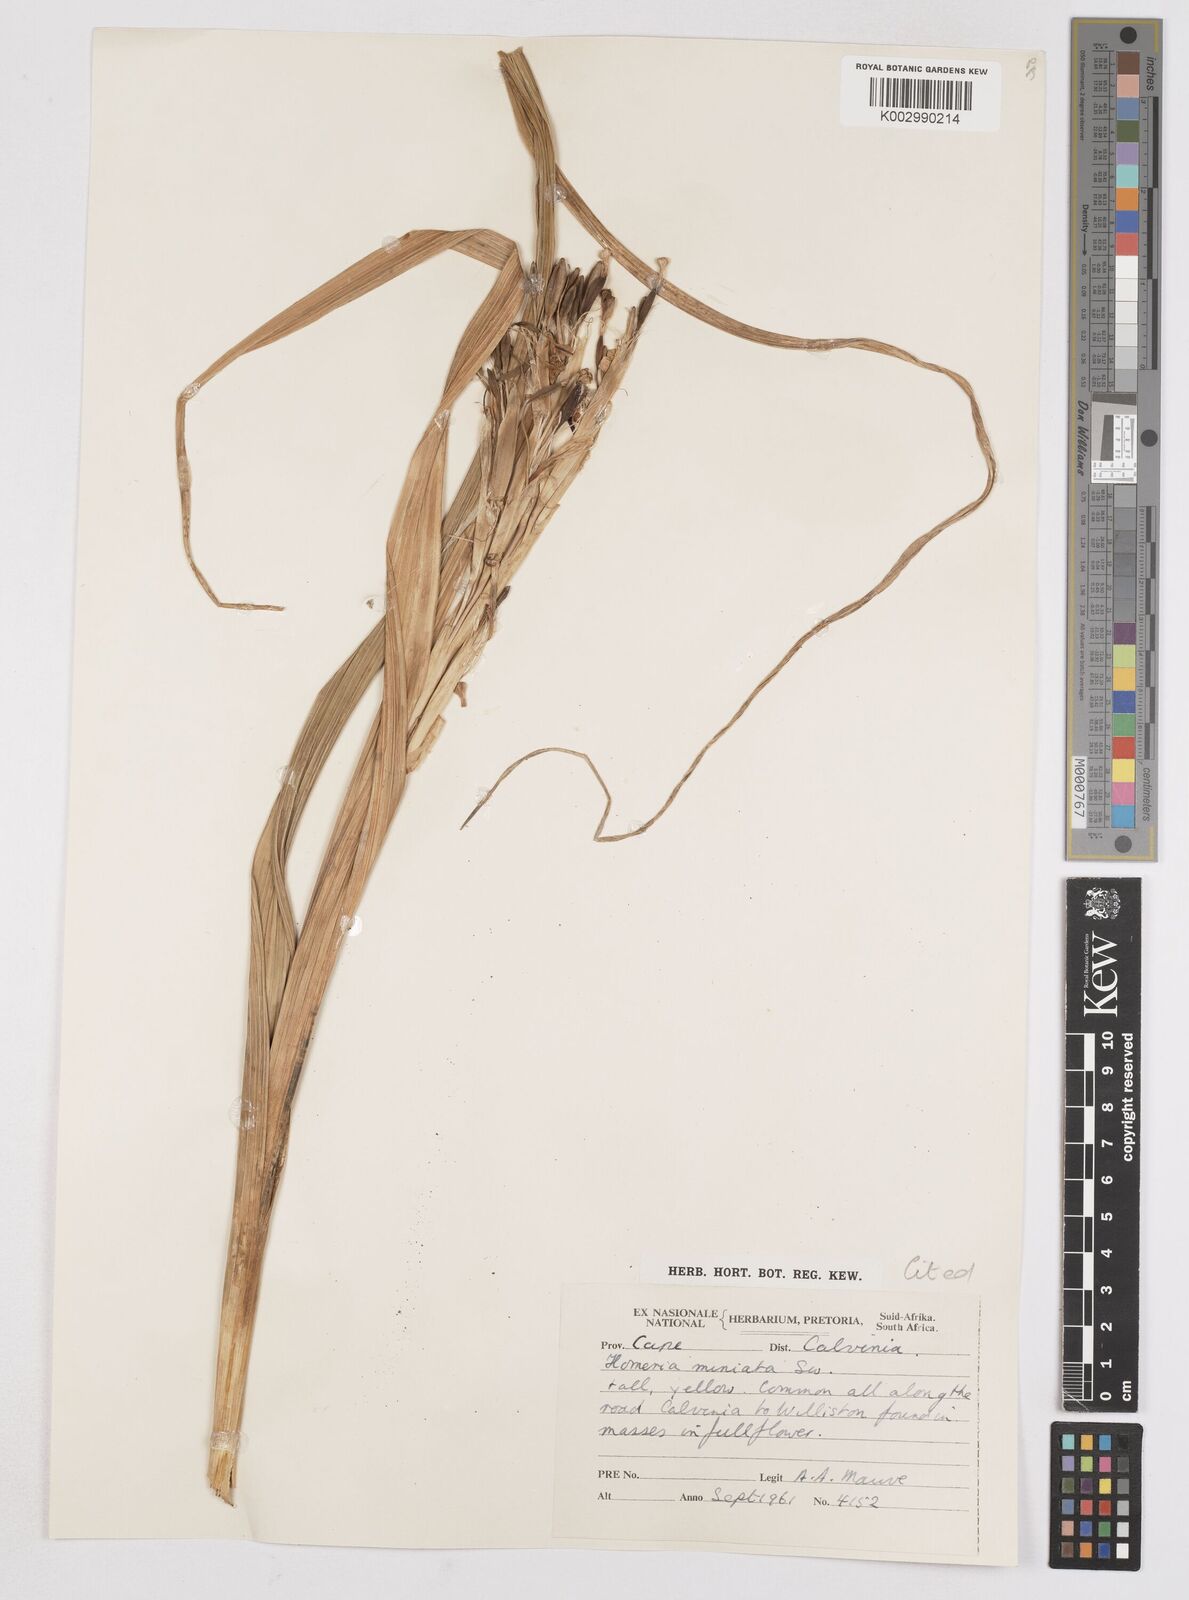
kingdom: Plantae
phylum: Tracheophyta
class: Liliopsida
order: Asparagales
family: Iridaceae
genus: Moraea
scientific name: Moraea miniata
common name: Two-leaf cape-tulip
